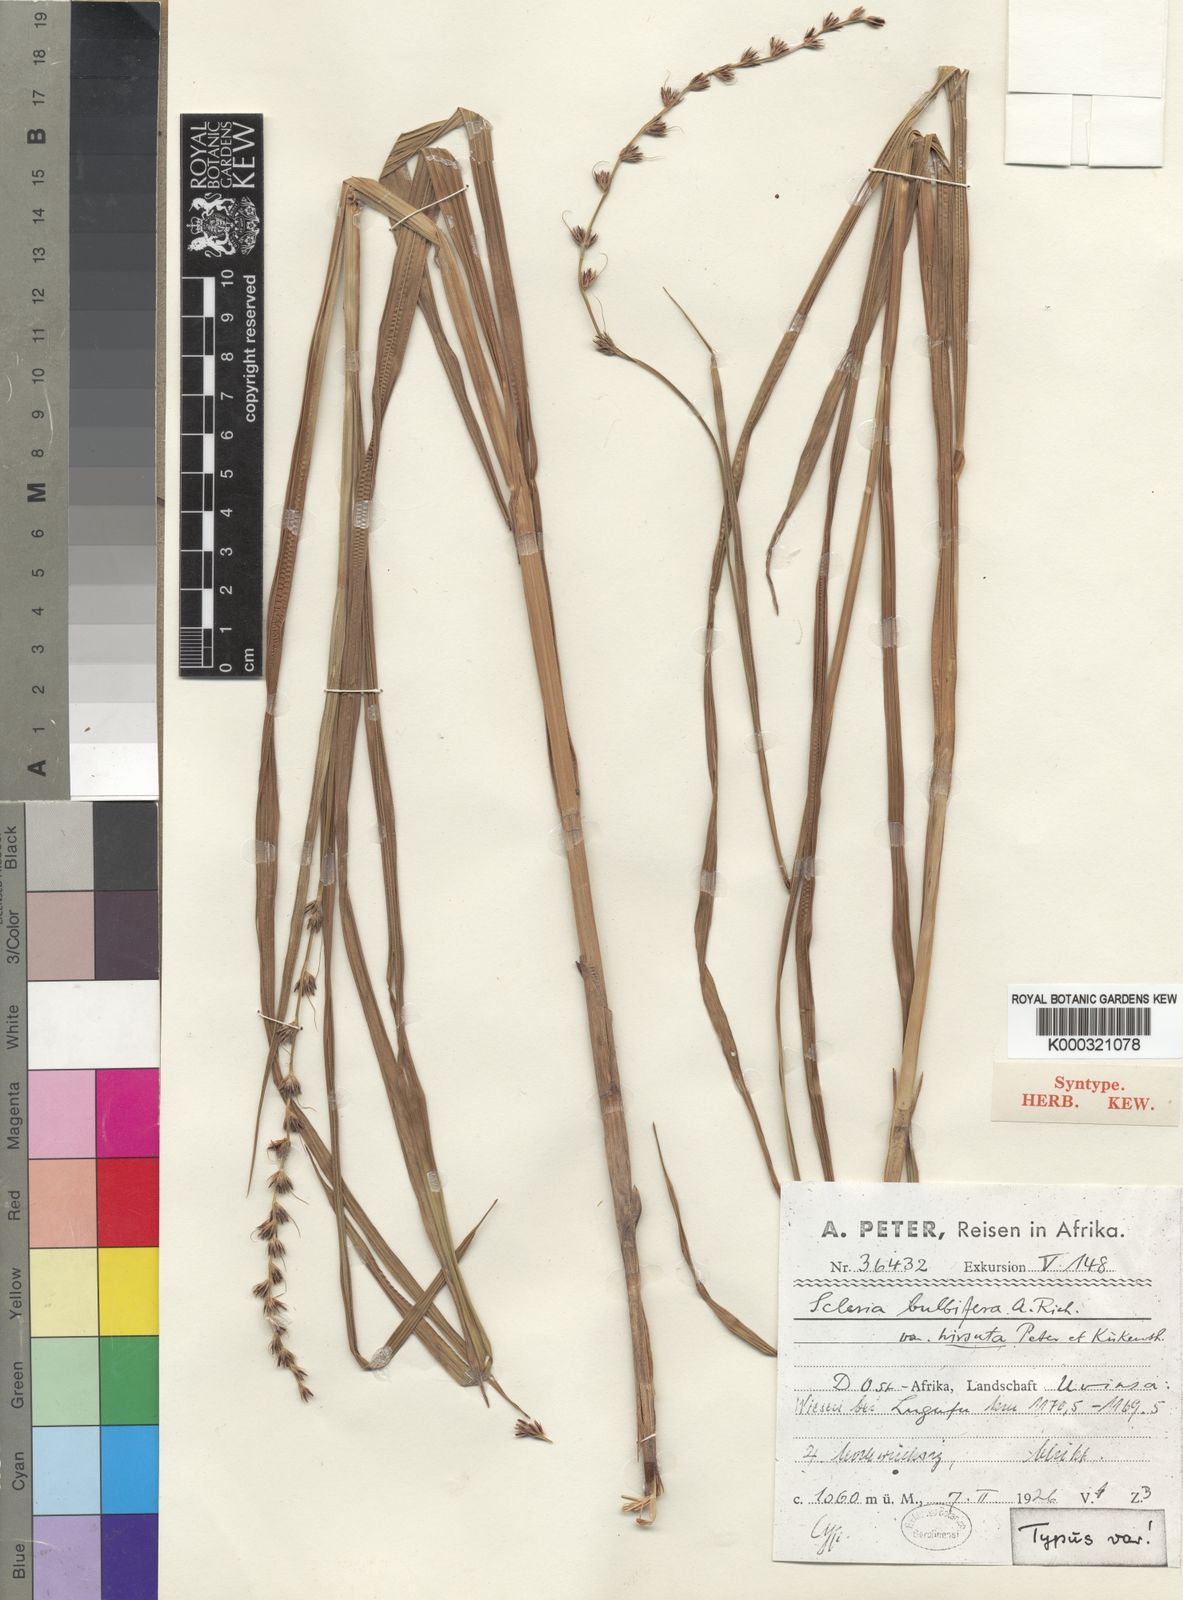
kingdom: Plantae
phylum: Tracheophyta
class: Liliopsida
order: Poales
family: Cyperaceae
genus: Scleria
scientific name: Scleria bulbifera
